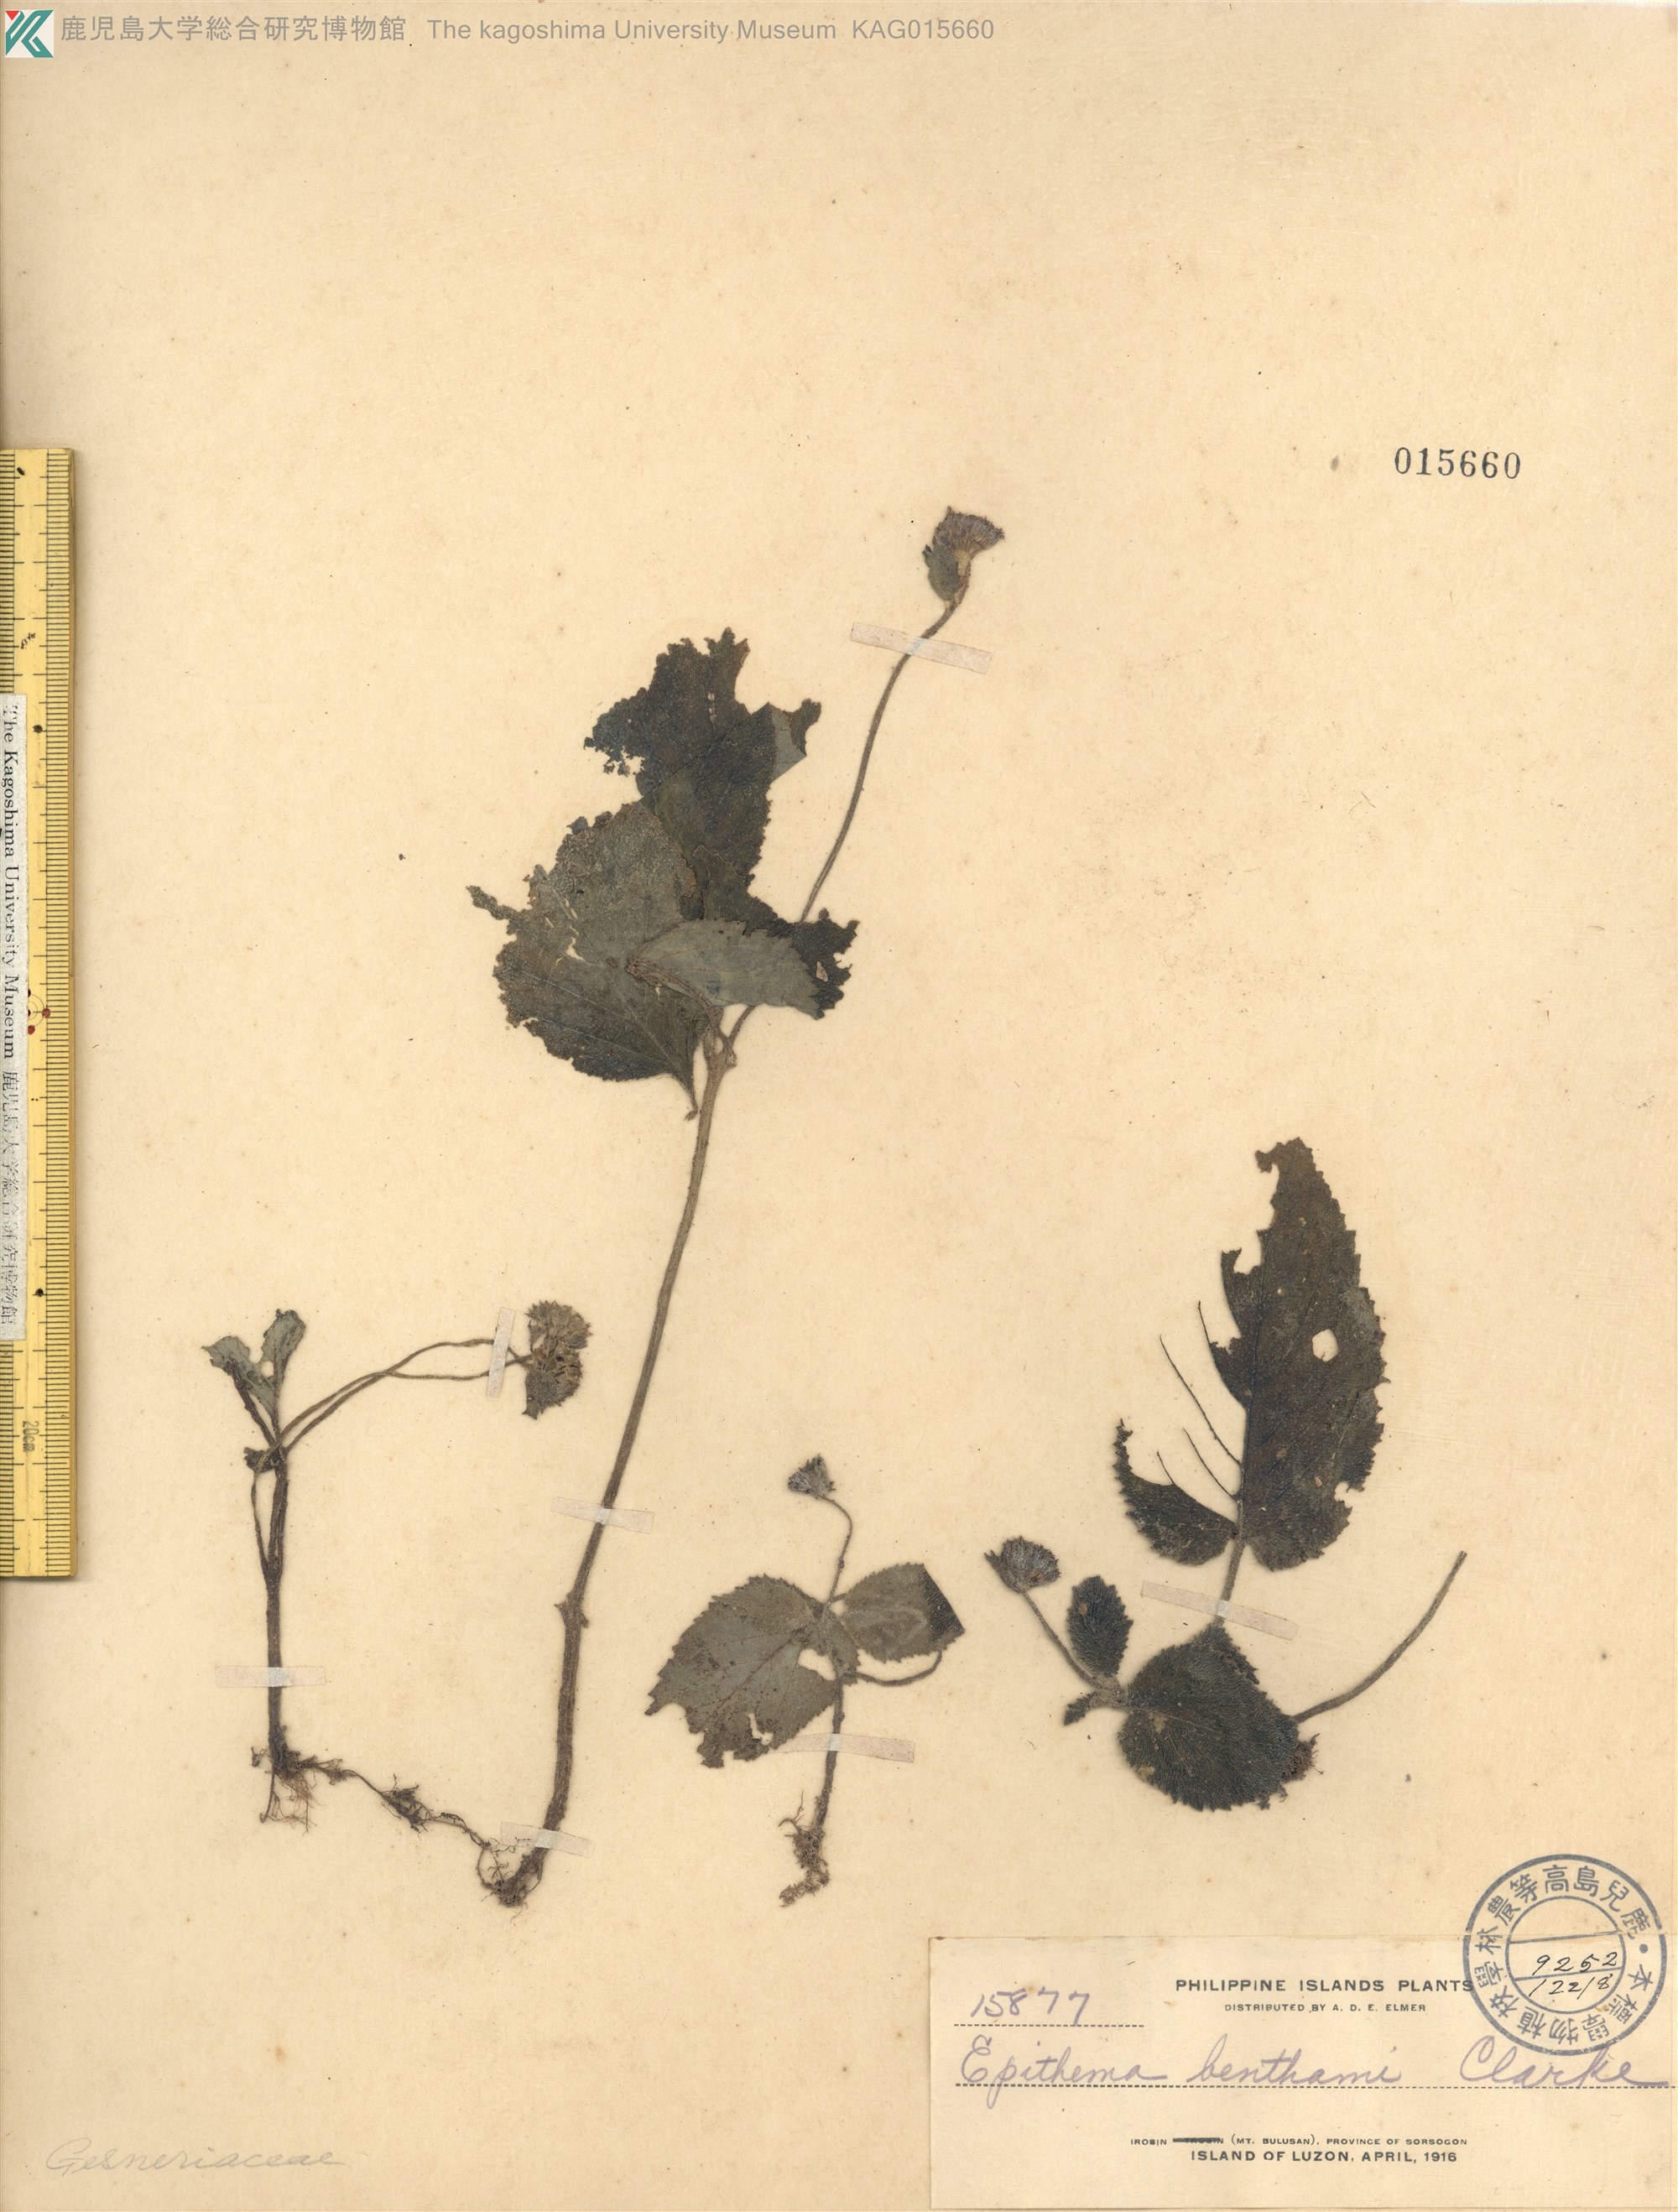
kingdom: Plantae
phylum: Tracheophyta
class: Magnoliopsida
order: Lamiales
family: Gesneriaceae
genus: Epithema
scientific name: Epithema benthamii
